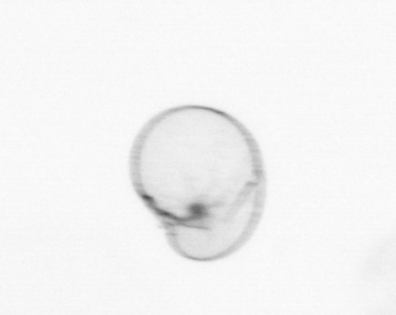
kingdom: Chromista
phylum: Myzozoa
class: Dinophyceae
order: Noctilucales
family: Noctilucaceae
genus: Noctiluca
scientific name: Noctiluca scintillans
